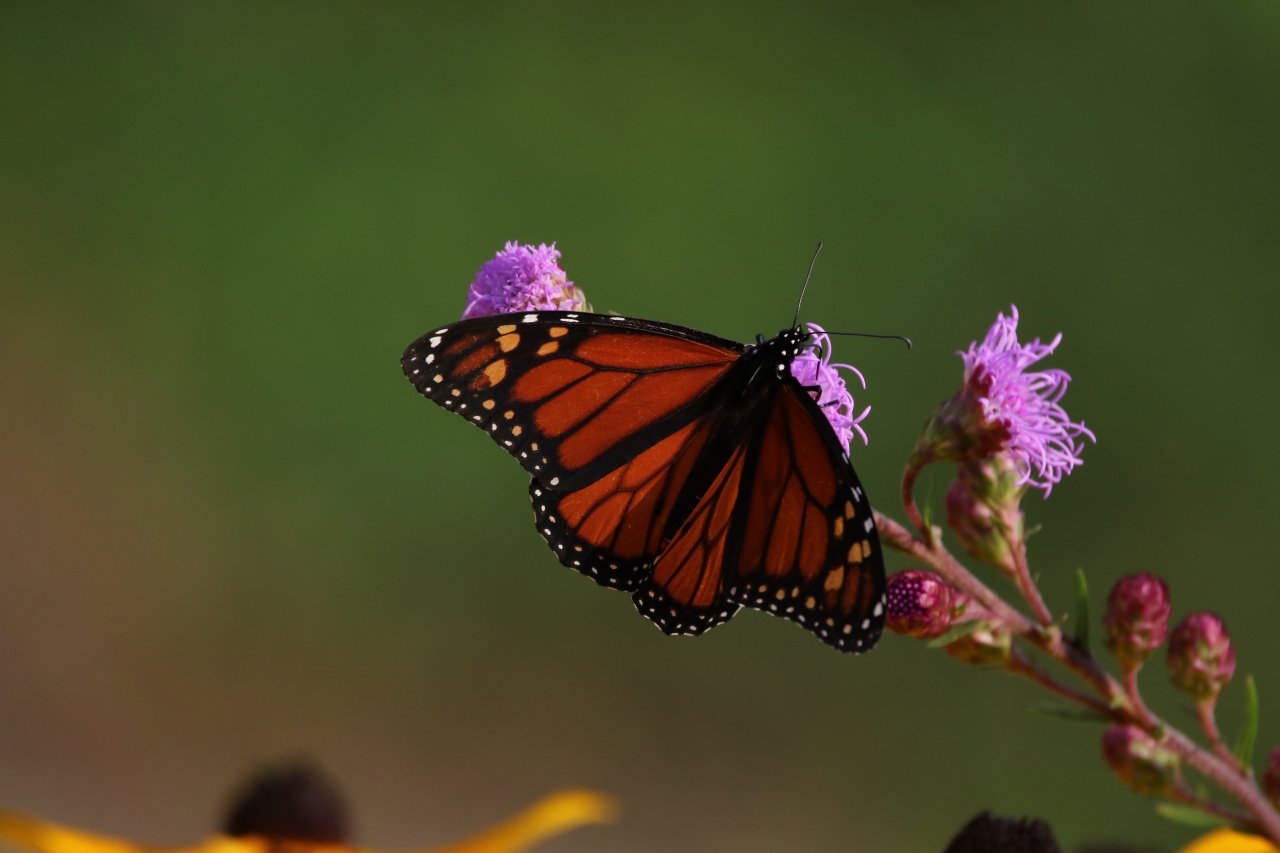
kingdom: Animalia
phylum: Arthropoda
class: Insecta
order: Lepidoptera
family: Nymphalidae
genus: Danaus
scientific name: Danaus plexippus
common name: Monarch
